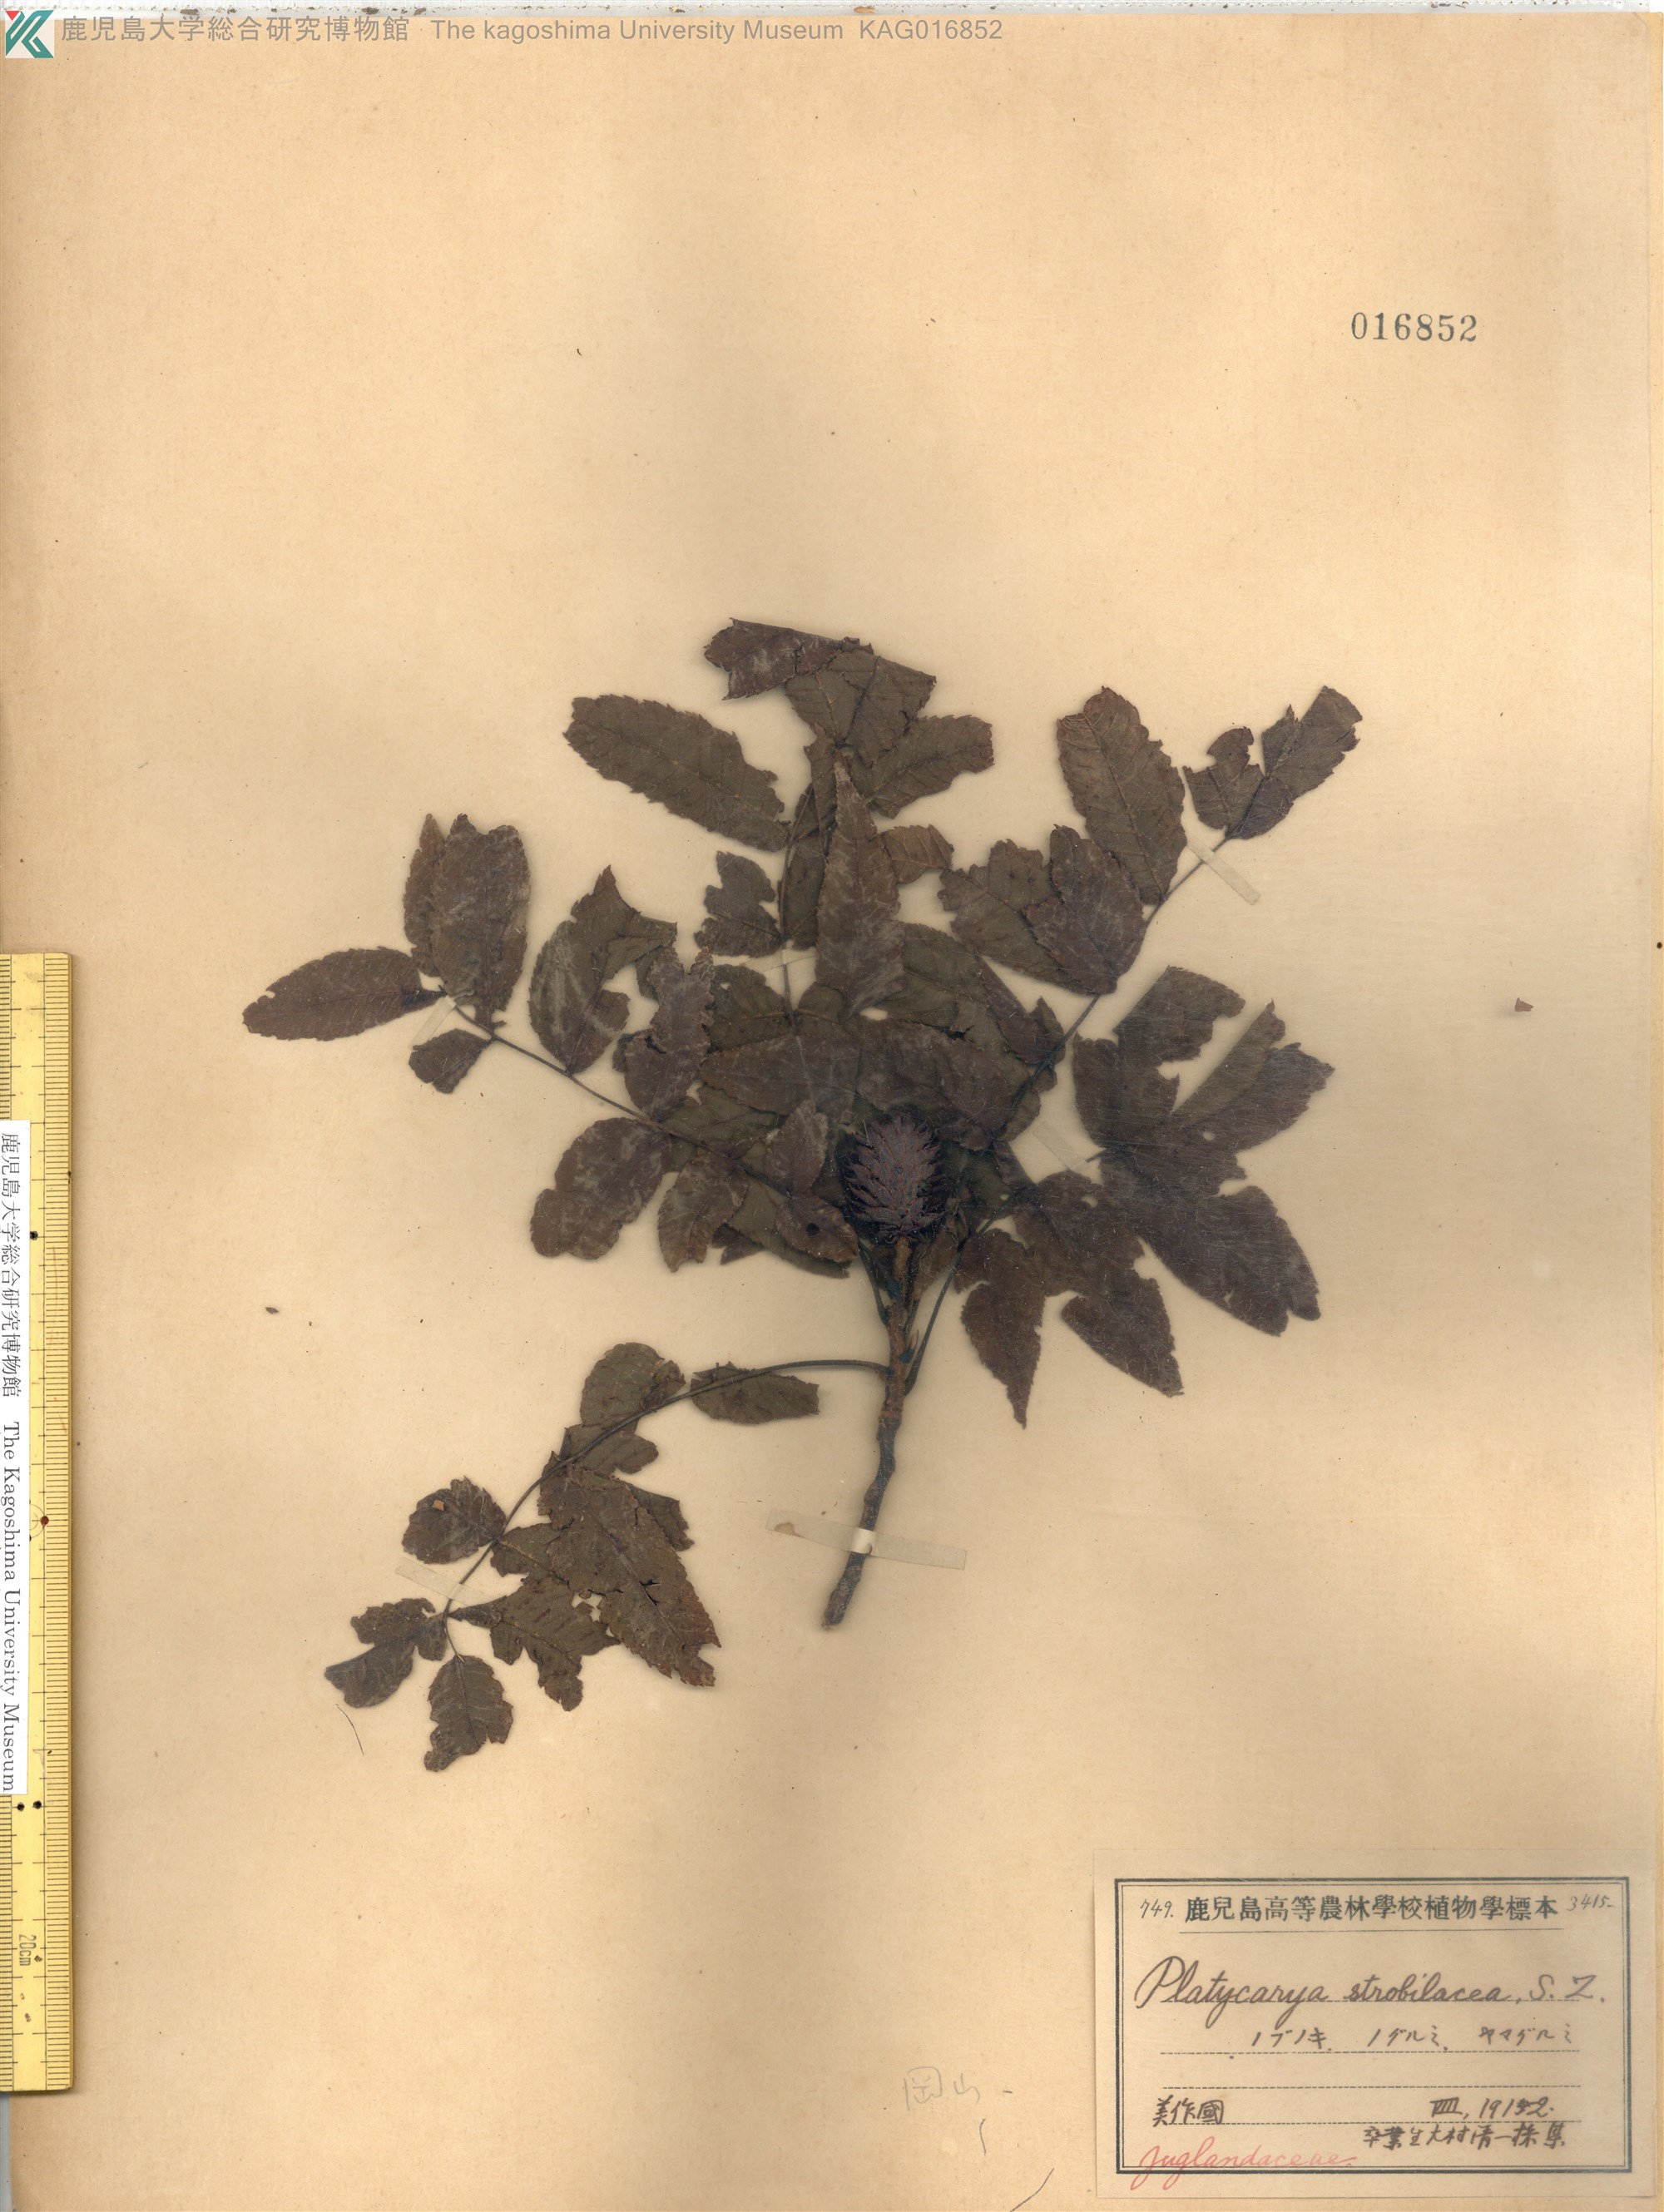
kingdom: Plantae
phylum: Tracheophyta
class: Magnoliopsida
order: Fagales
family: Juglandaceae
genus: Platycarya
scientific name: Platycarya strobilacea
